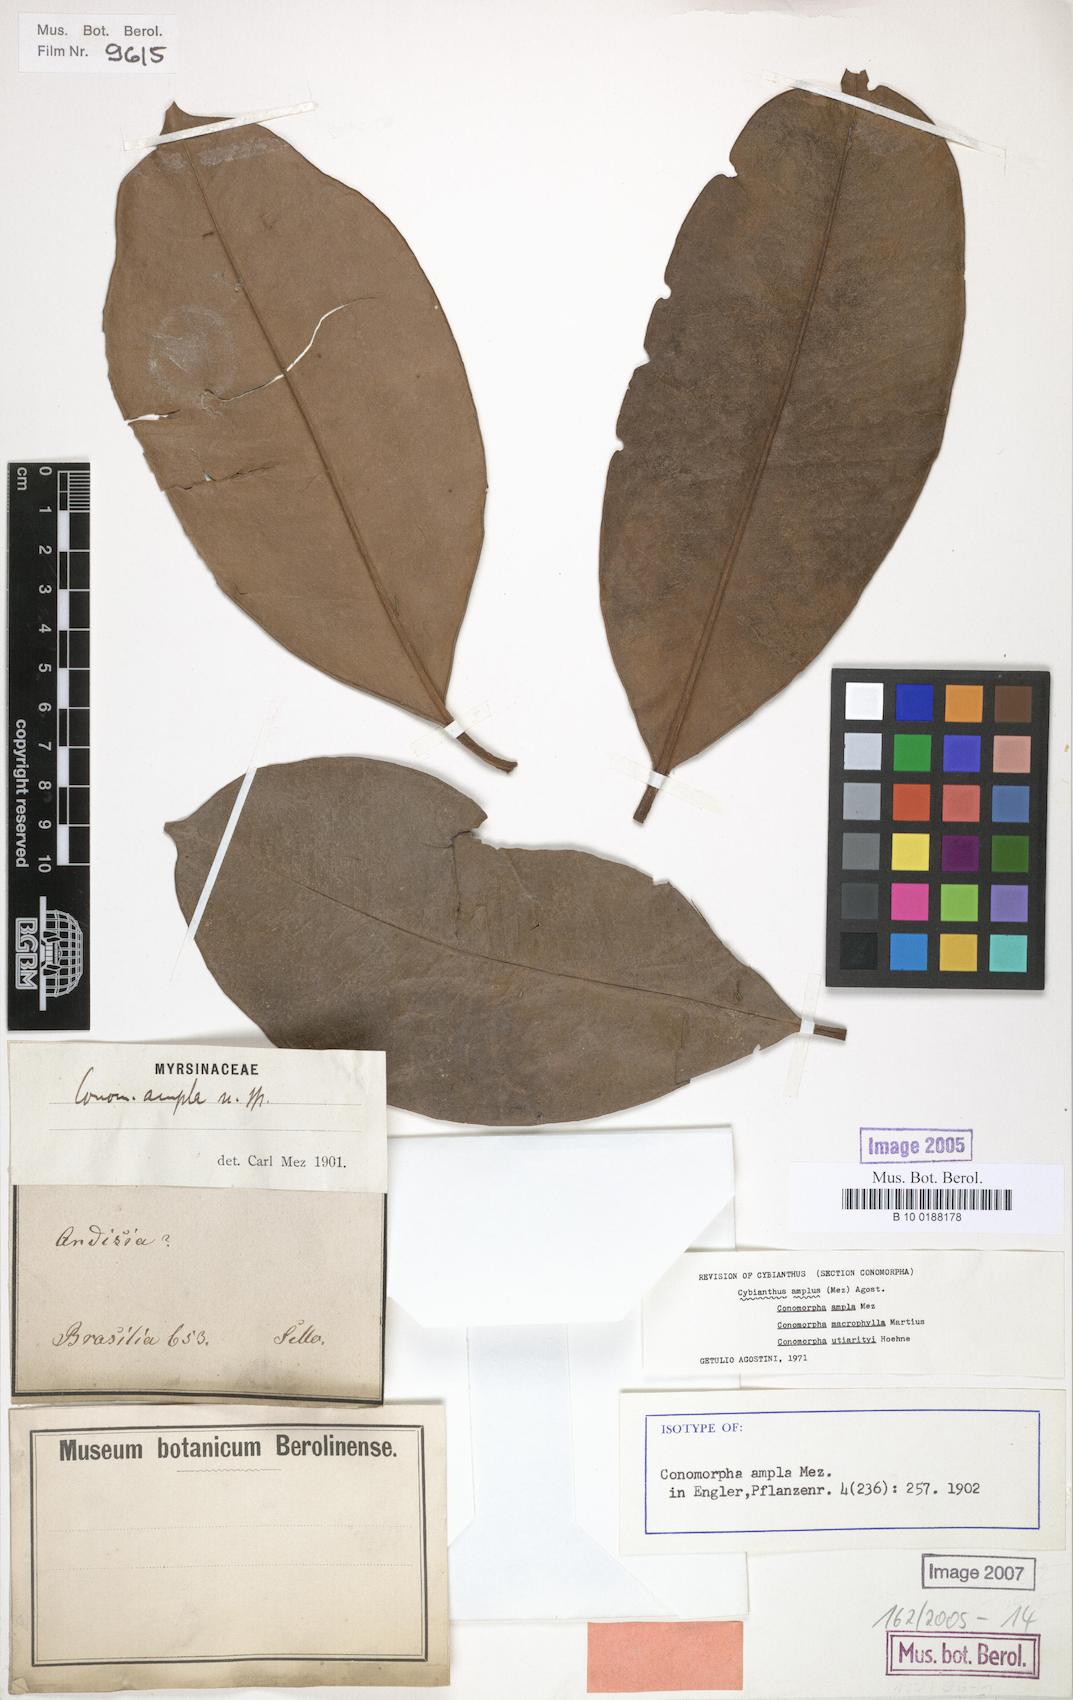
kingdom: Plantae
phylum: Tracheophyta
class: Magnoliopsida
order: Ericales
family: Primulaceae
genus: Cybianthus
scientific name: Cybianthus amplus
